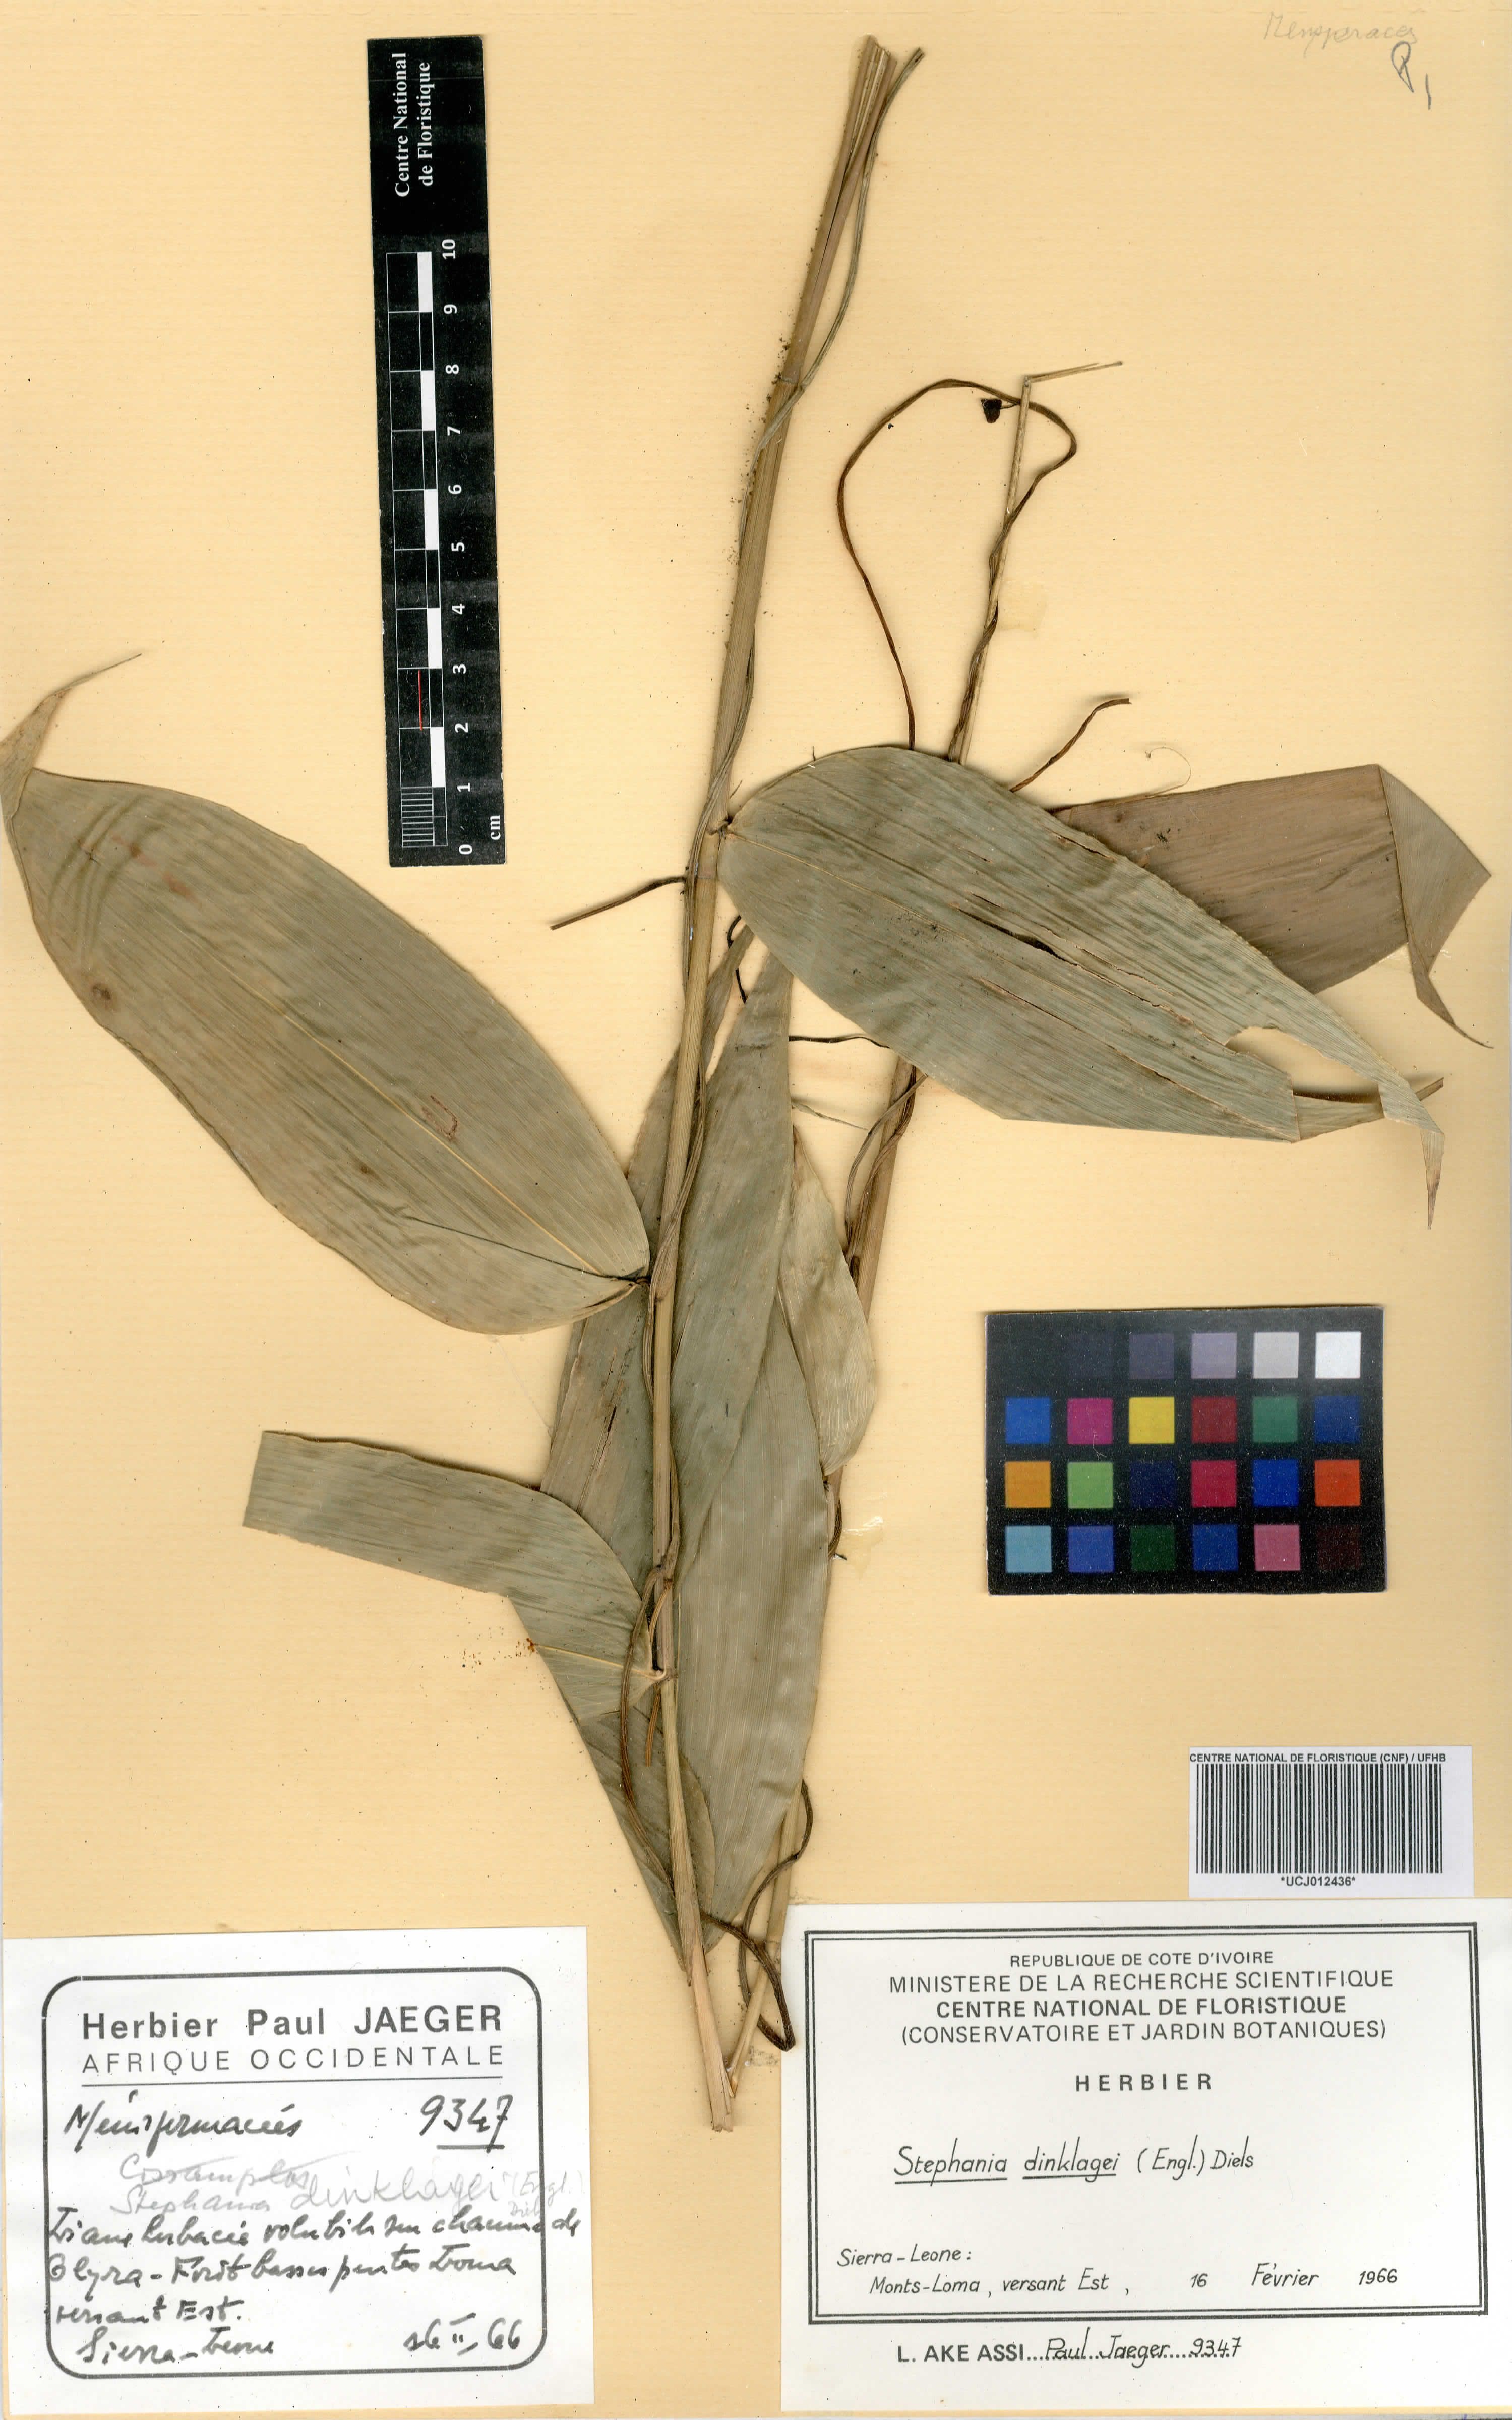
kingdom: Plantae
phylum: Tracheophyta
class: Magnoliopsida
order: Ranunculales
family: Menispermaceae
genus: Stephania
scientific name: Stephania dinklagei
